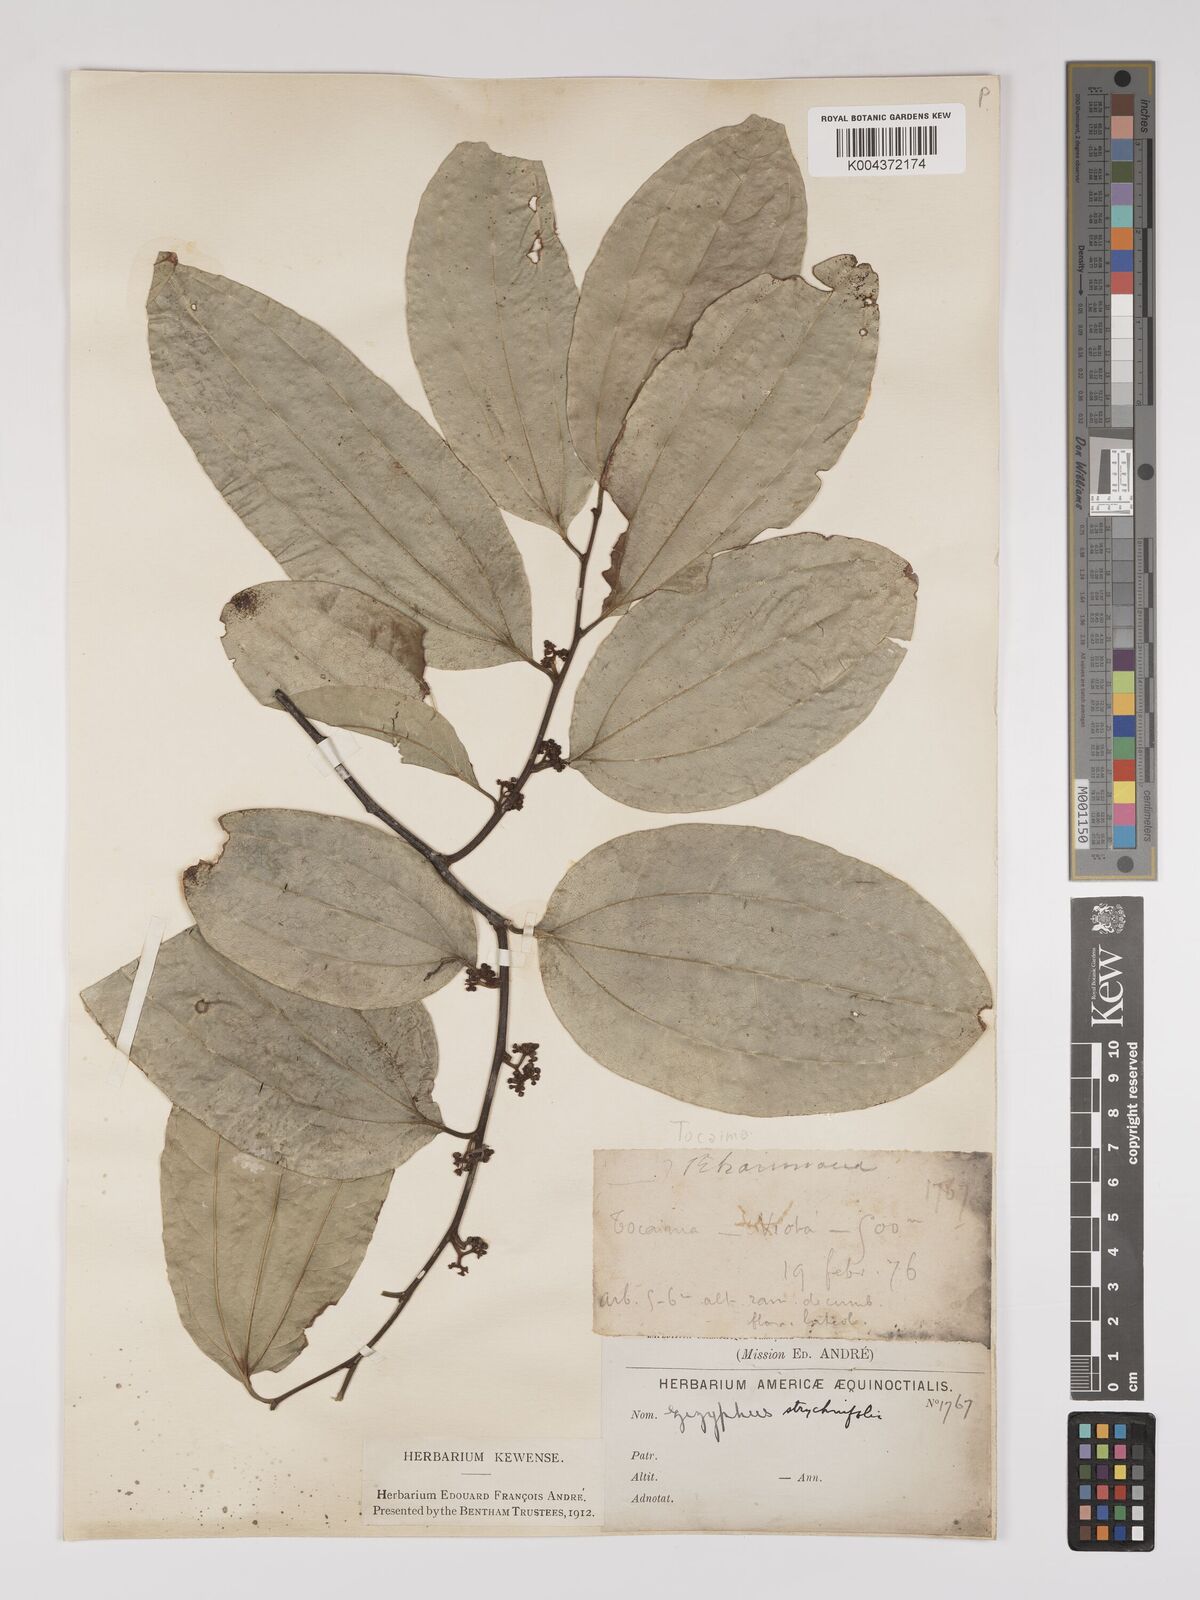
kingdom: Plantae
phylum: Tracheophyta
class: Magnoliopsida
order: Rosales
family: Rhamnaceae
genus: Sarcomphalus
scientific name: Sarcomphalus strychnifolius
